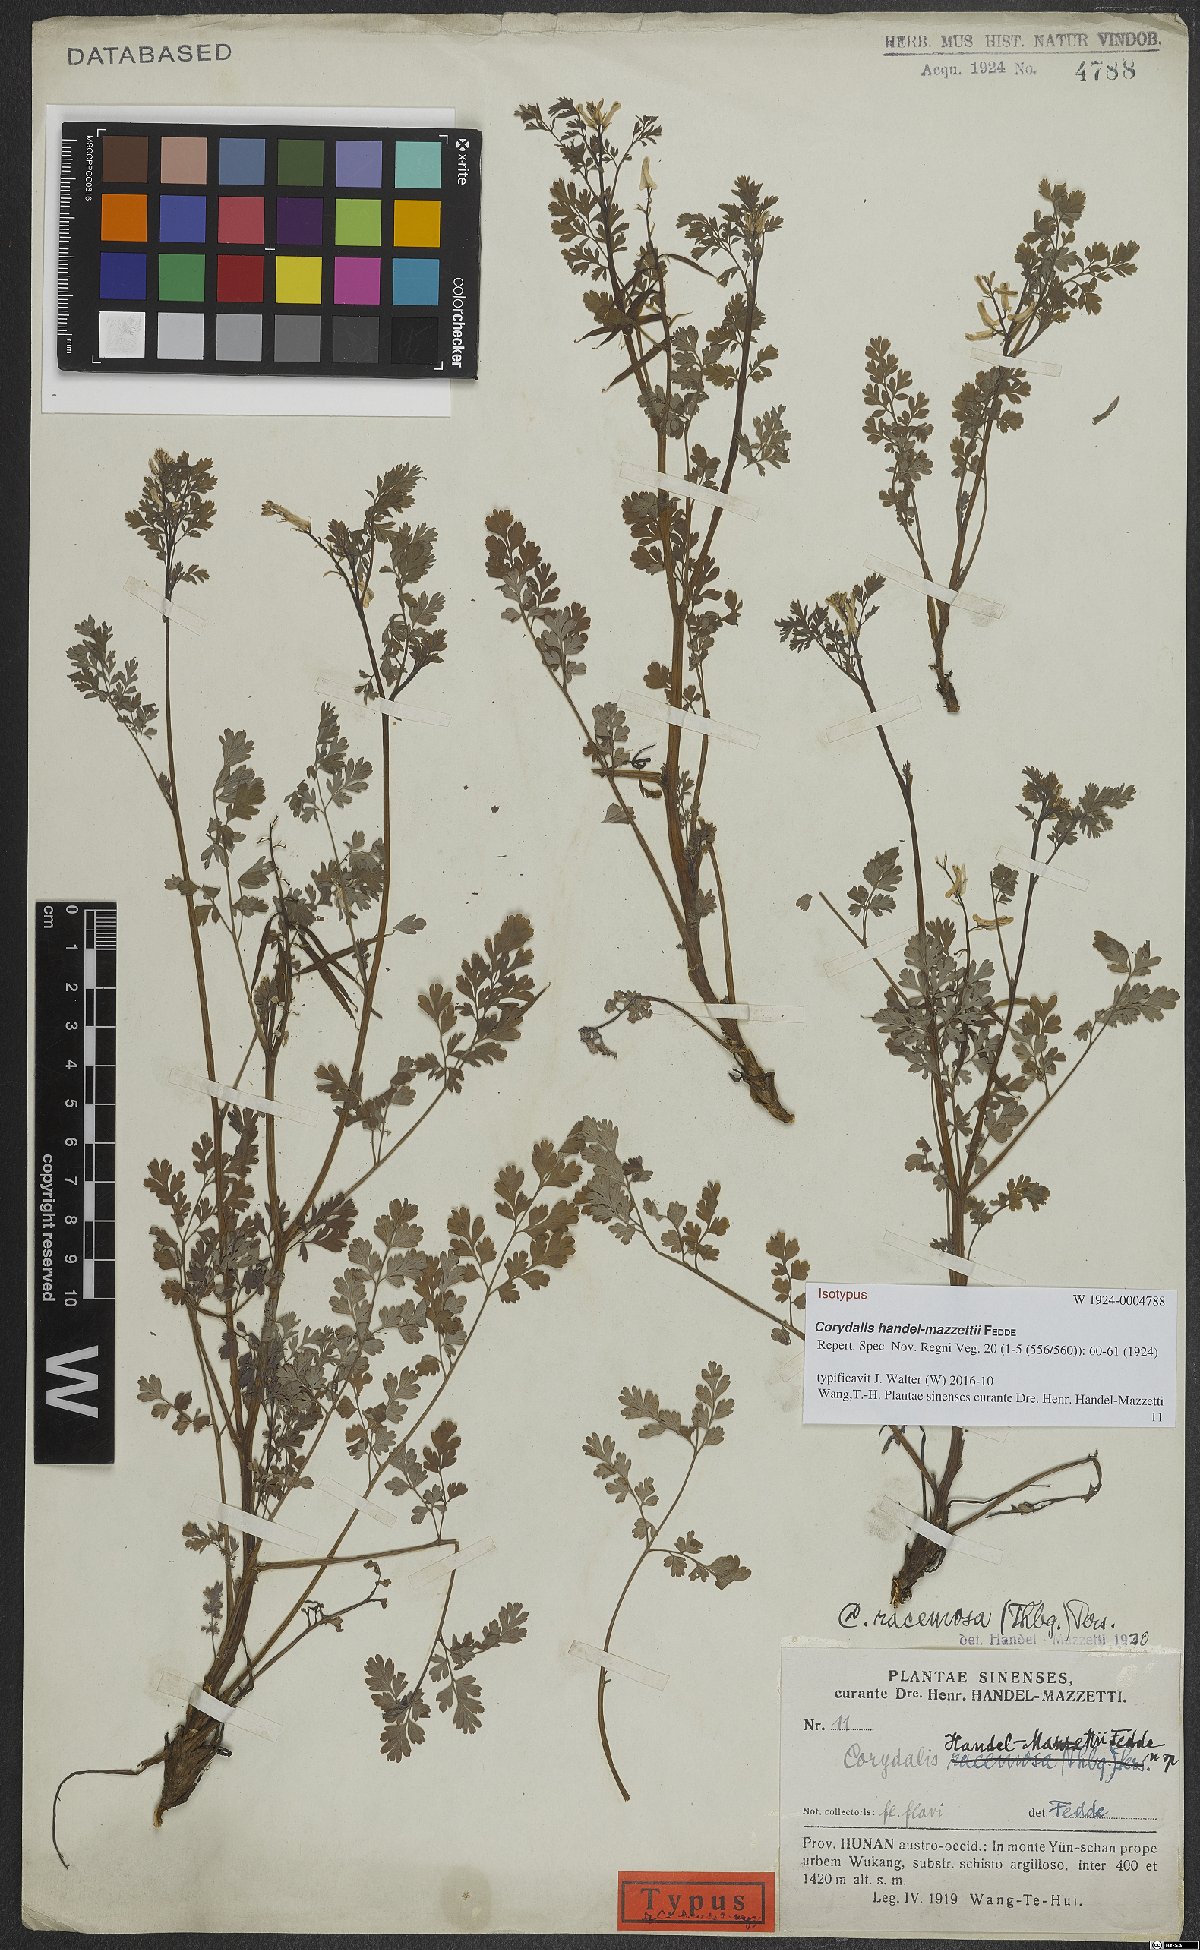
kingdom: Plantae
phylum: Tracheophyta
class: Magnoliopsida
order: Ranunculales
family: Papaveraceae
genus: Corydalis
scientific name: Corydalis racemosa
